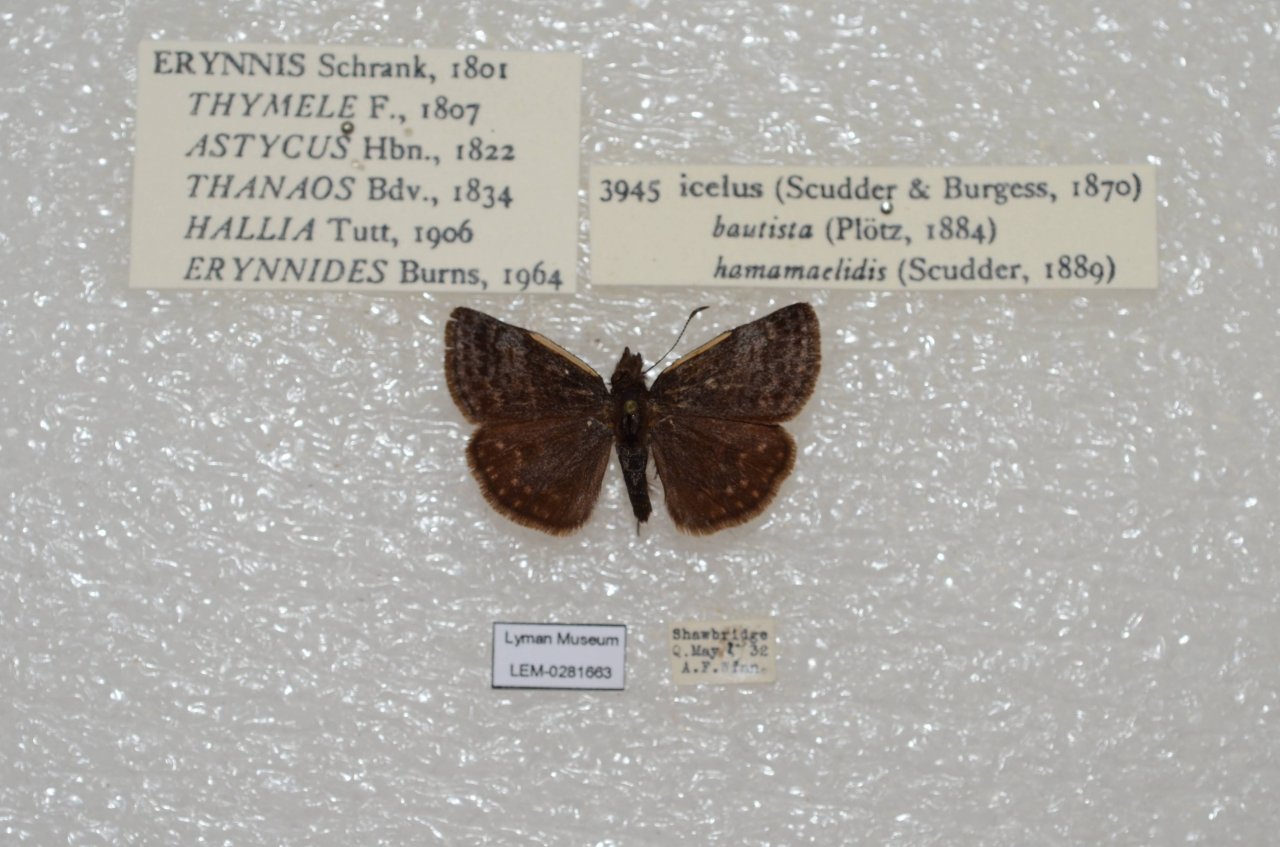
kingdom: Animalia
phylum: Arthropoda
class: Insecta
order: Lepidoptera
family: Hesperiidae
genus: Erynnis
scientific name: Erynnis icelus
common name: Dreamy Duskywing
